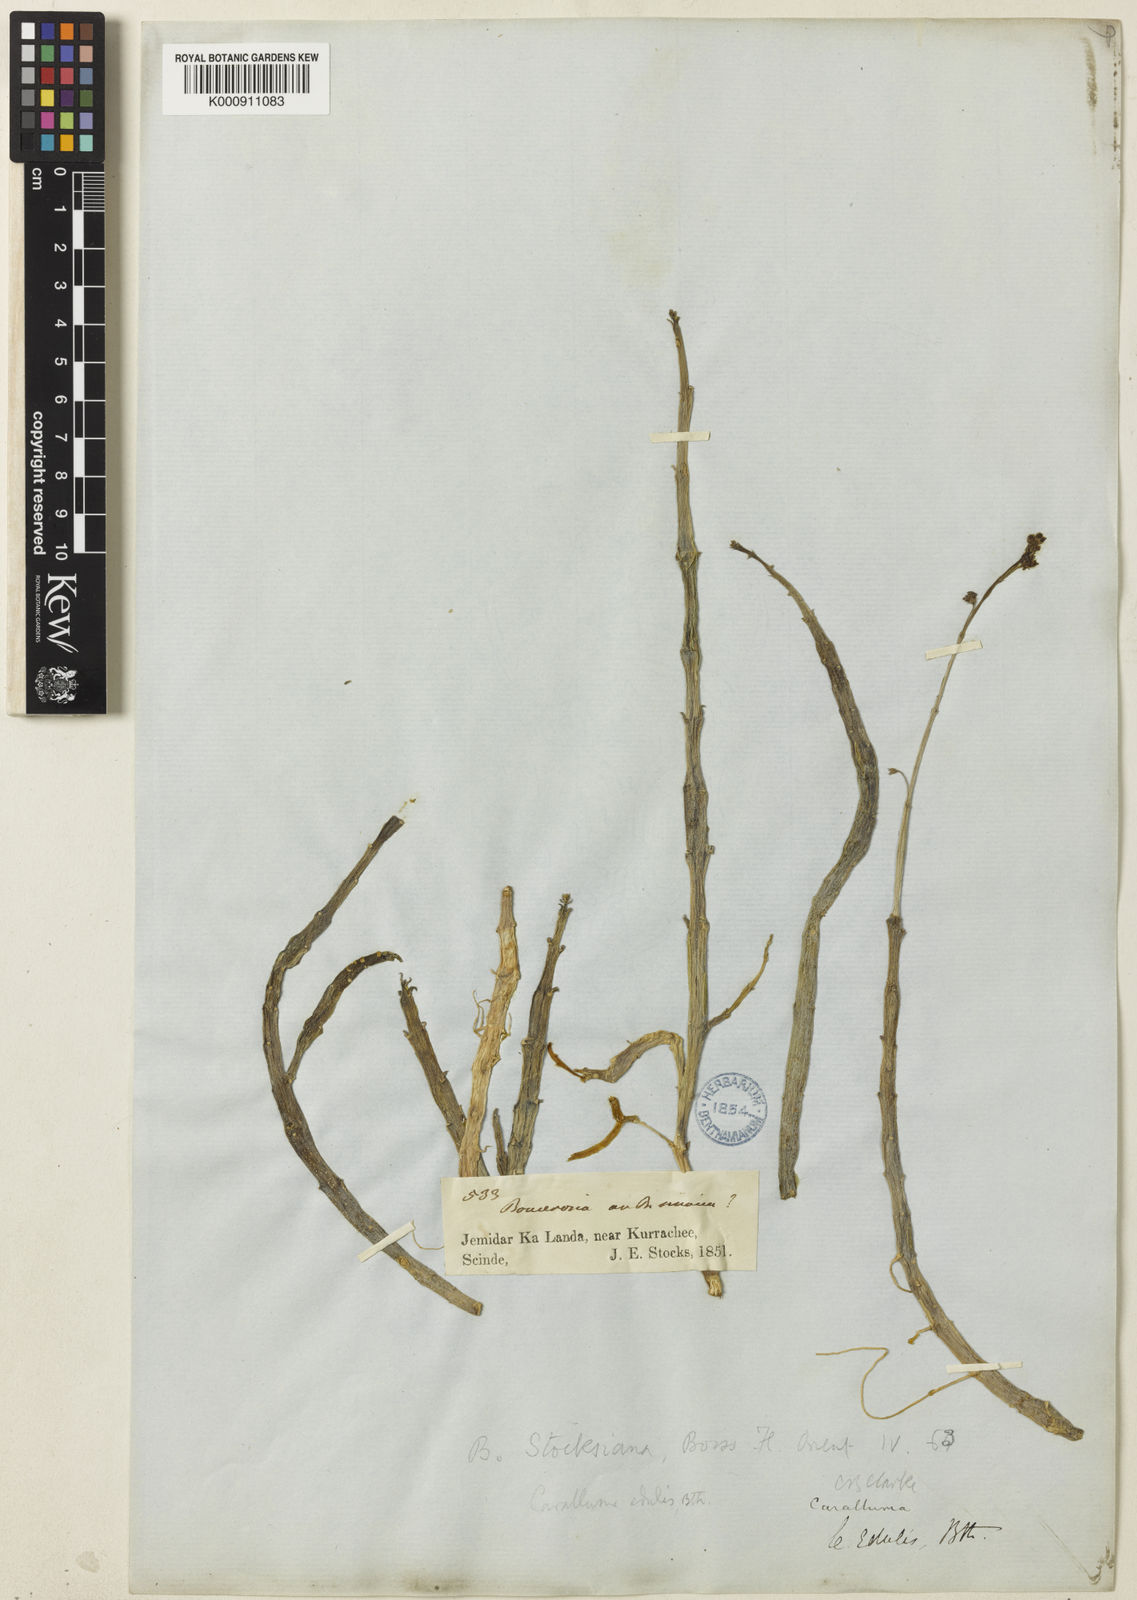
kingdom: Plantae
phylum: Tracheophyta
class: Magnoliopsida
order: Gentianales
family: Apocynaceae
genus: Ceropegia
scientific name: Ceropegia edulis
